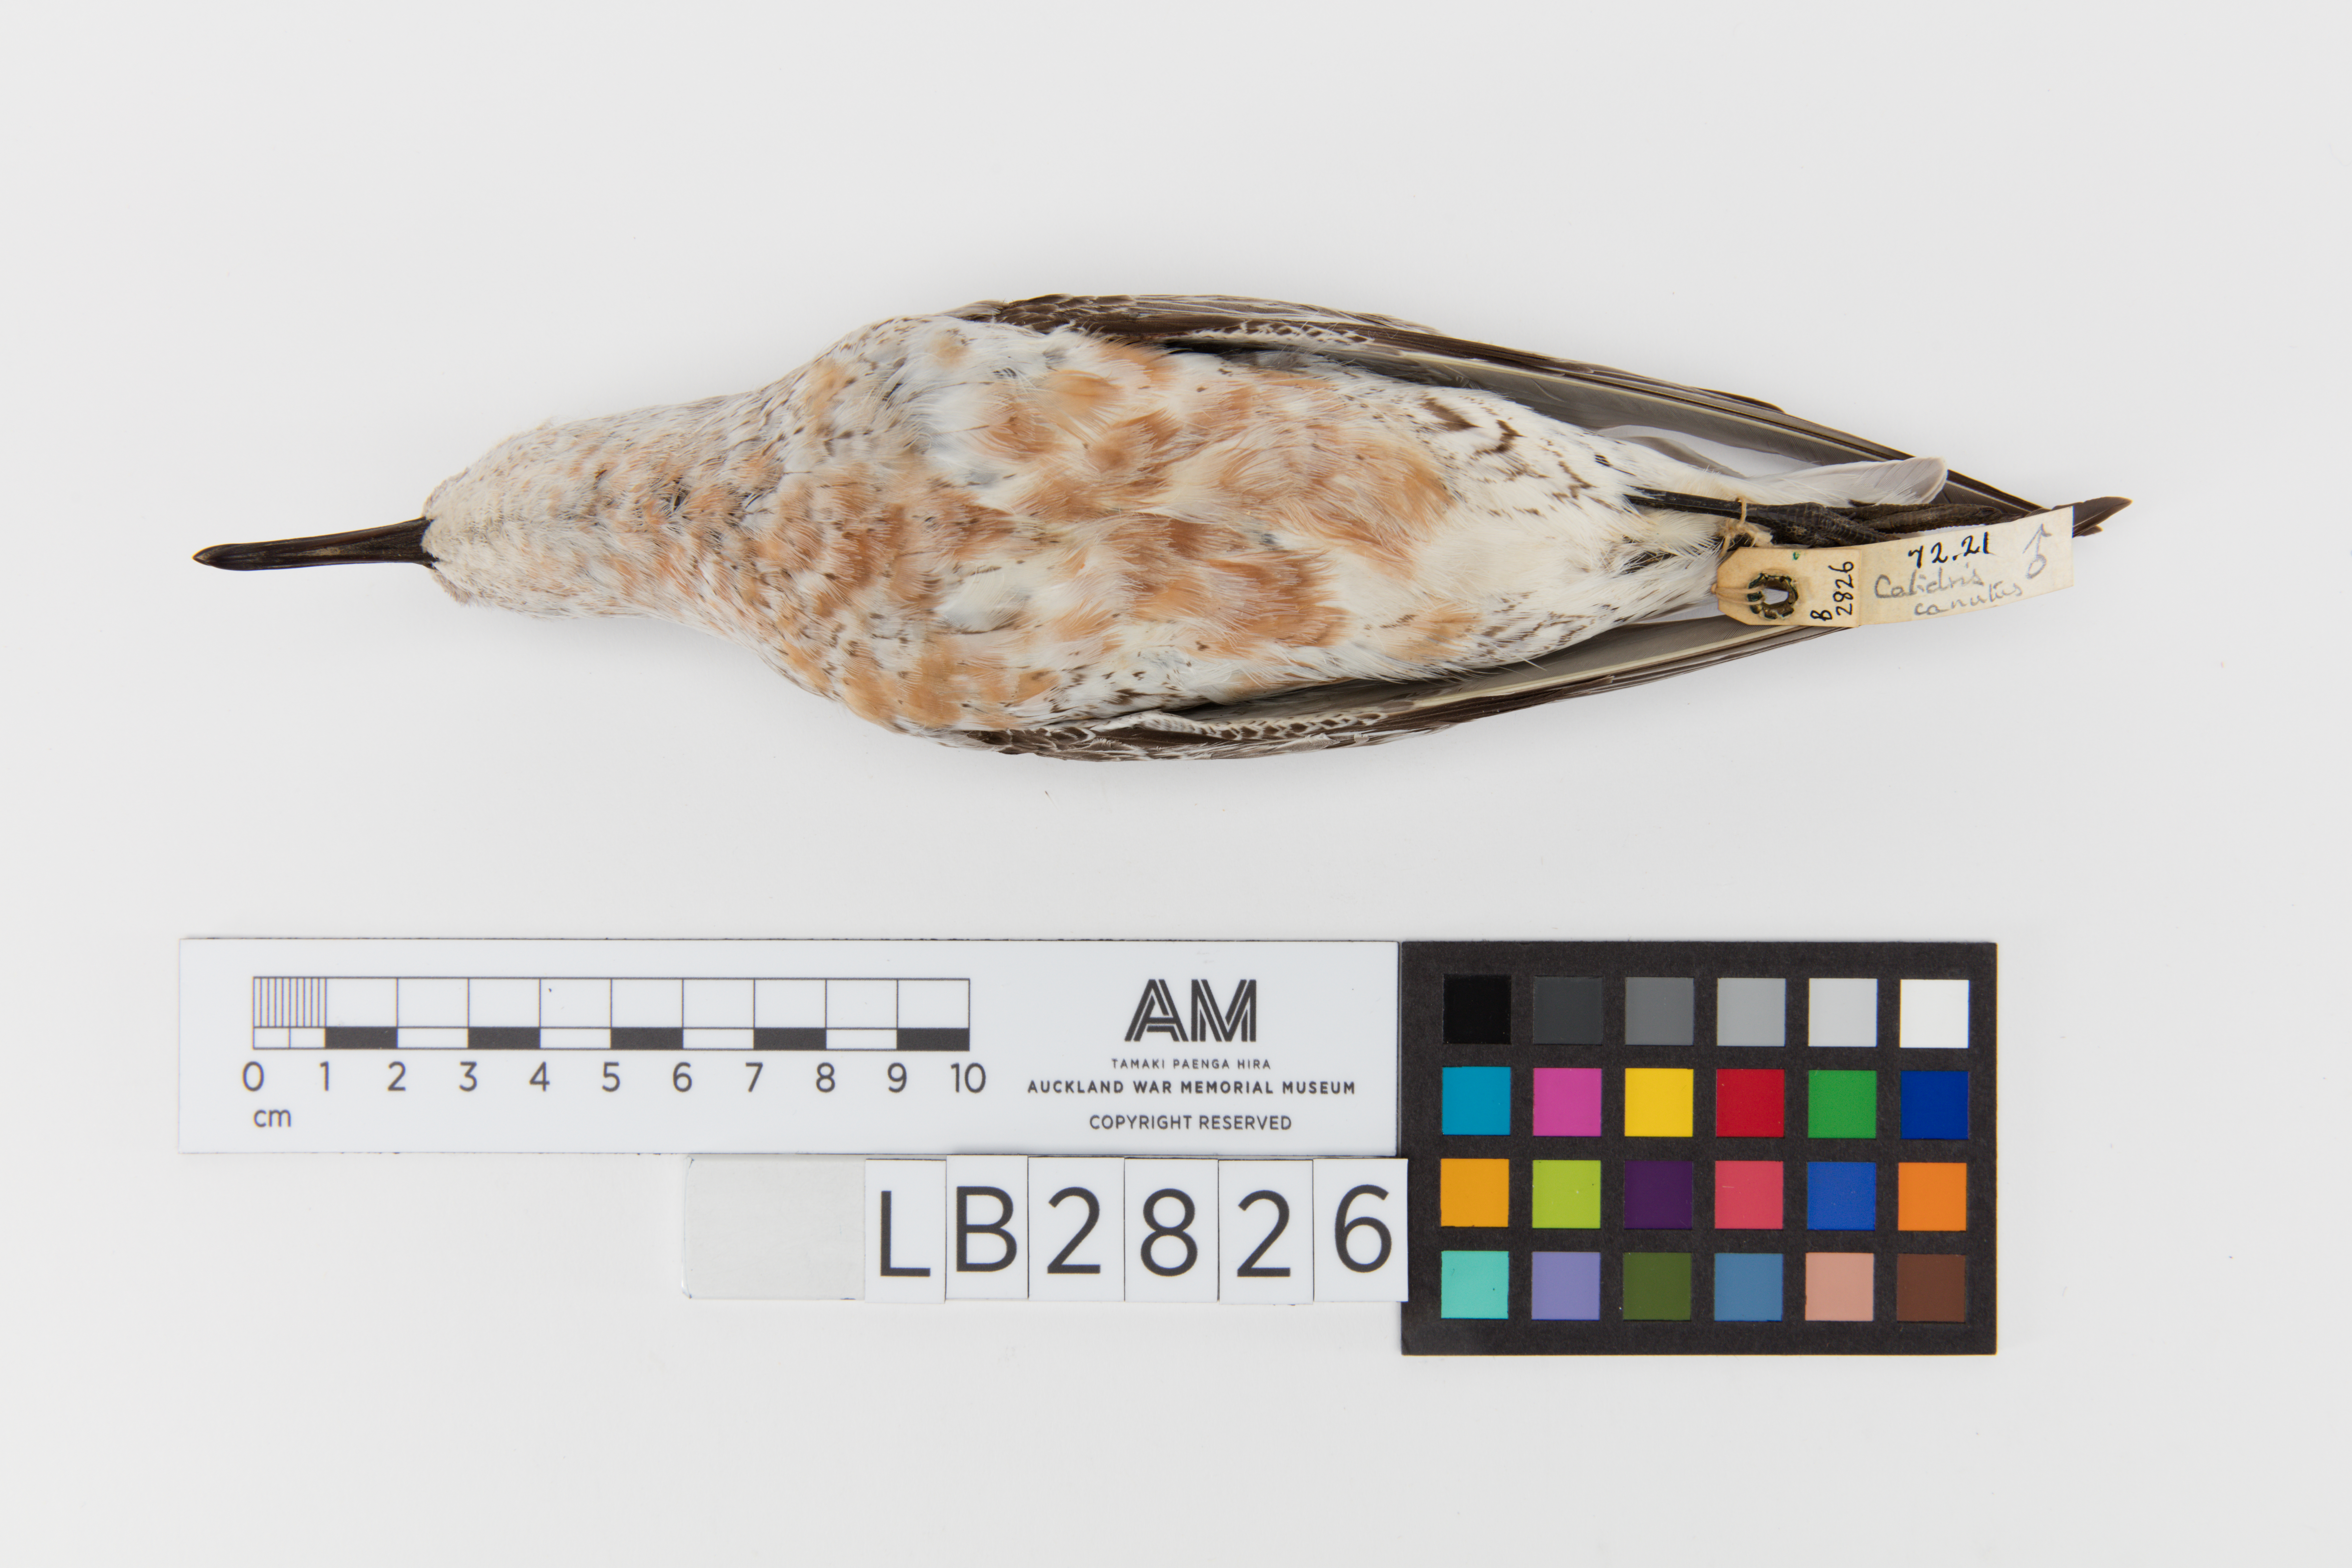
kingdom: Animalia
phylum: Chordata
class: Aves
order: Charadriiformes
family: Scolopacidae
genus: Calidris
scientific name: Calidris canutus
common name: Red knot
